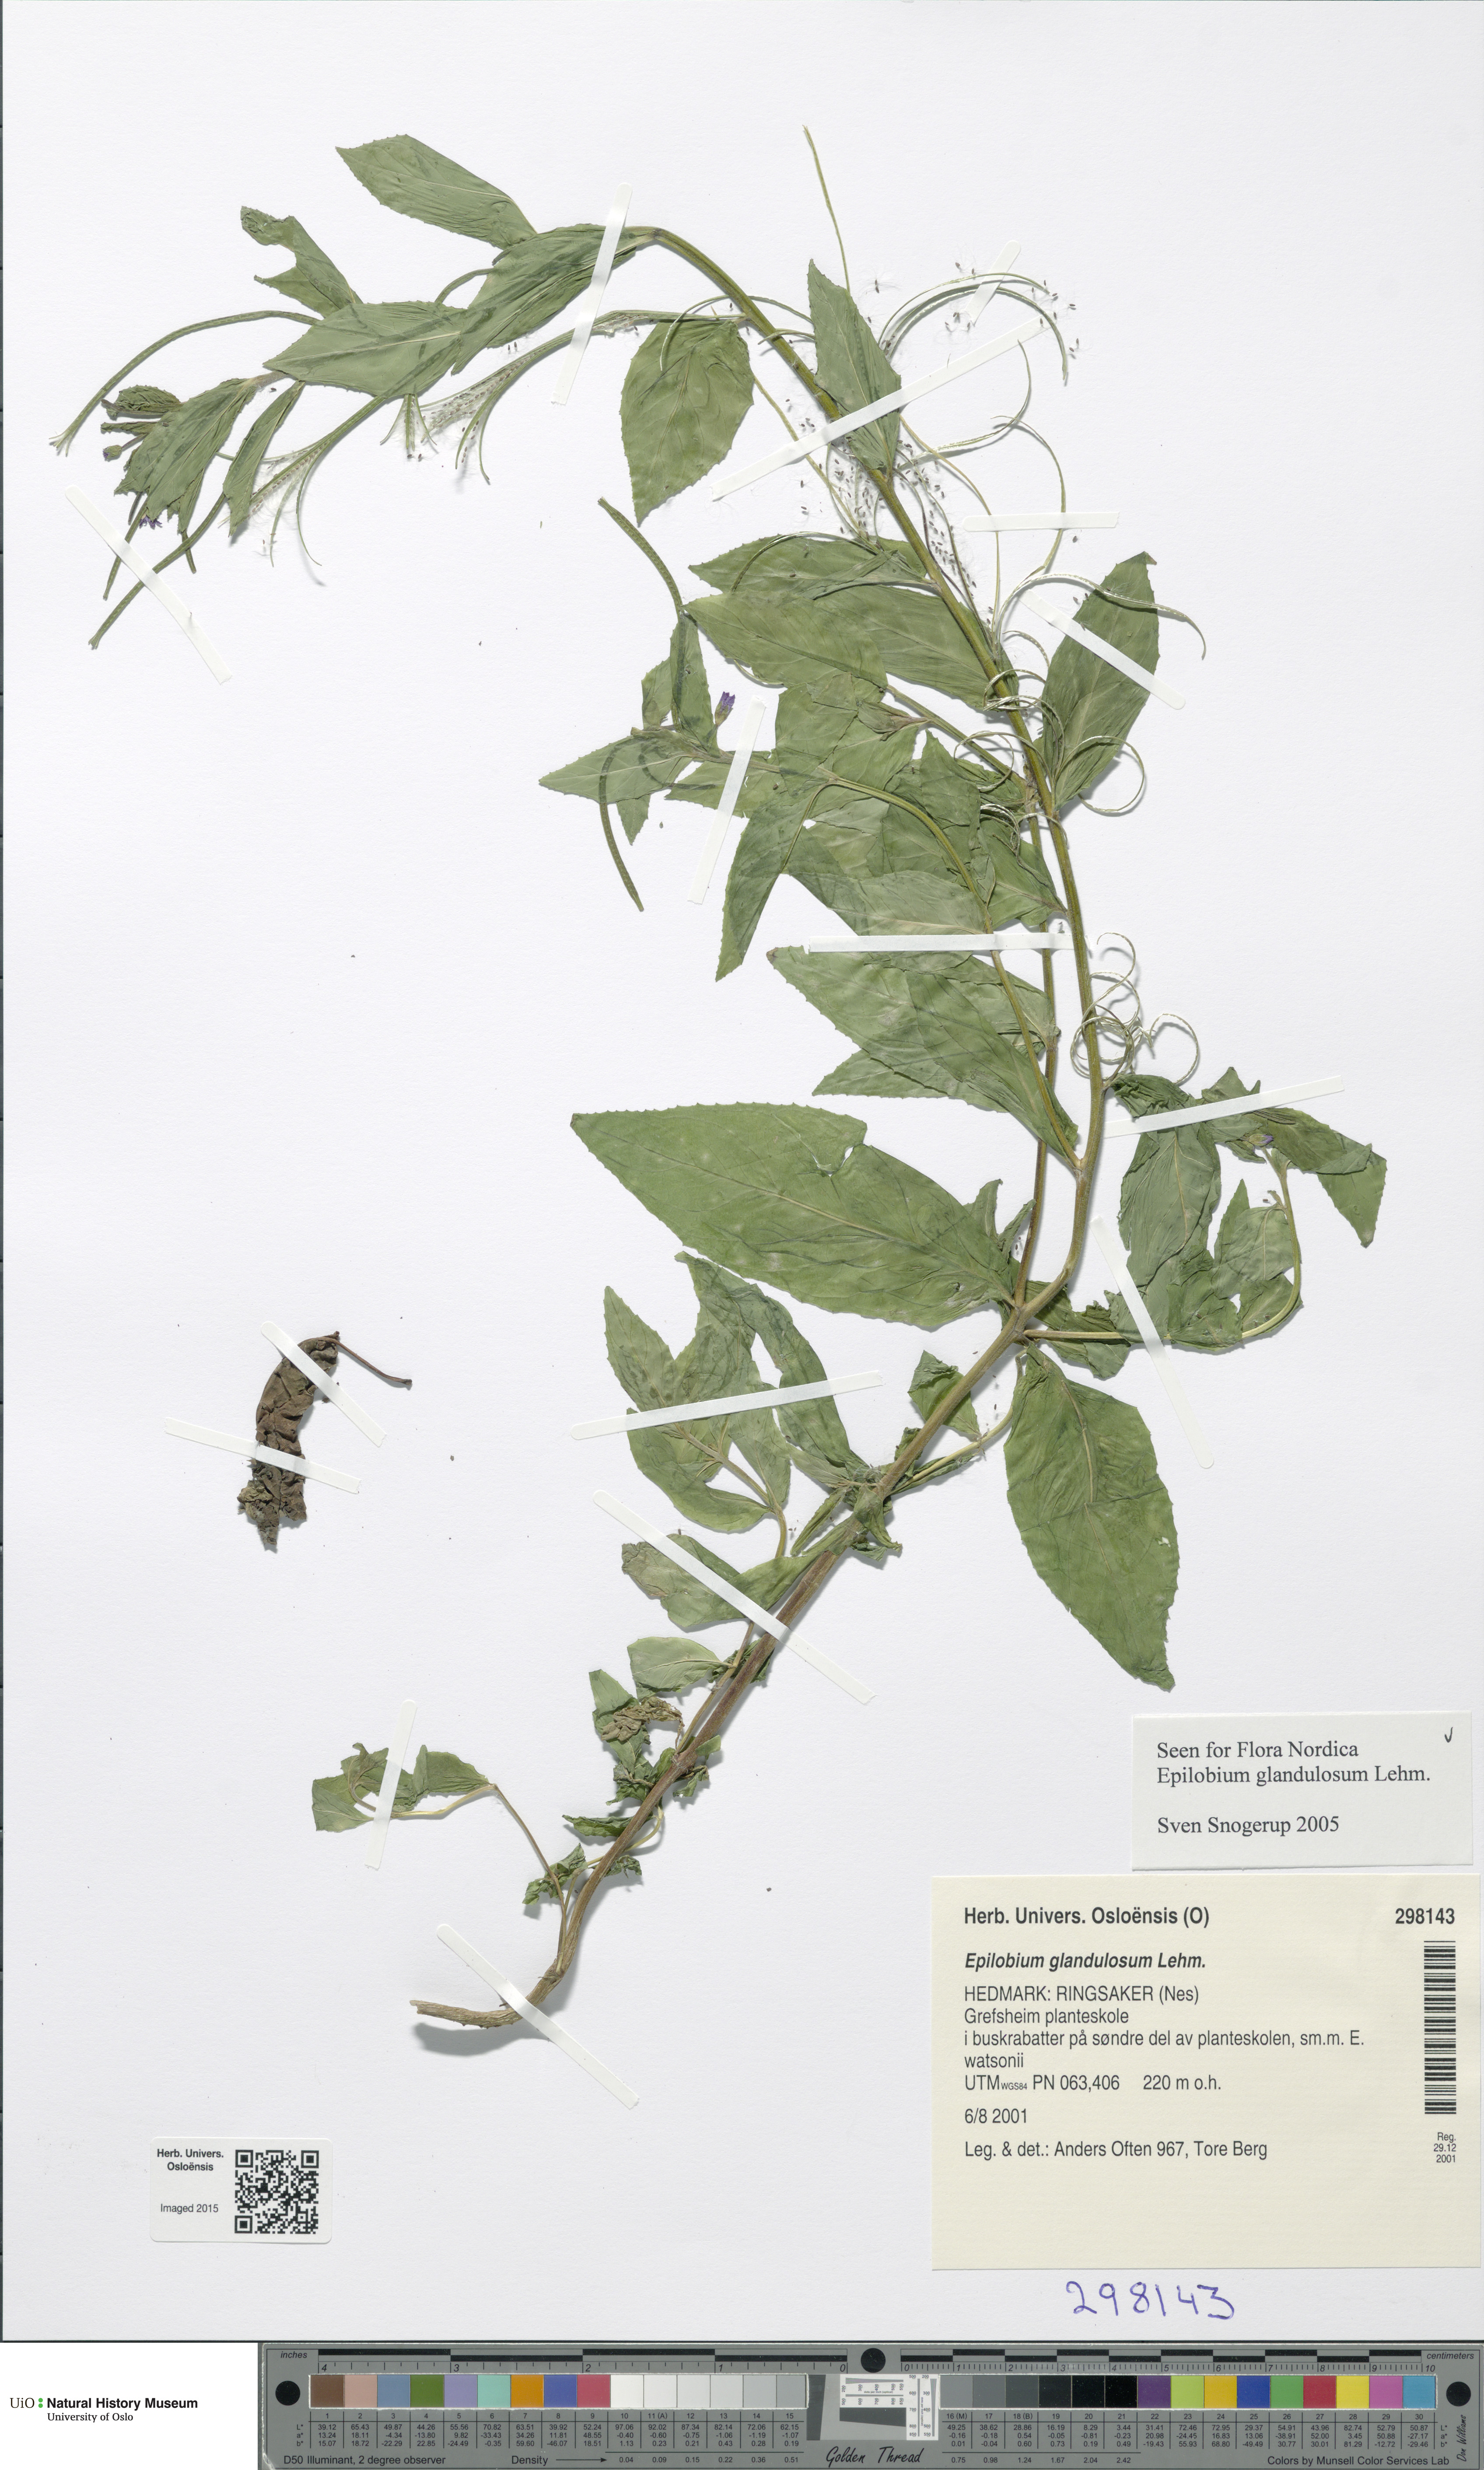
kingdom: Plantae
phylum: Tracheophyta
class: Magnoliopsida
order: Myrtales
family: Onagraceae
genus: Epilobium
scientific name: Epilobium ciliatum
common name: American willowherb
